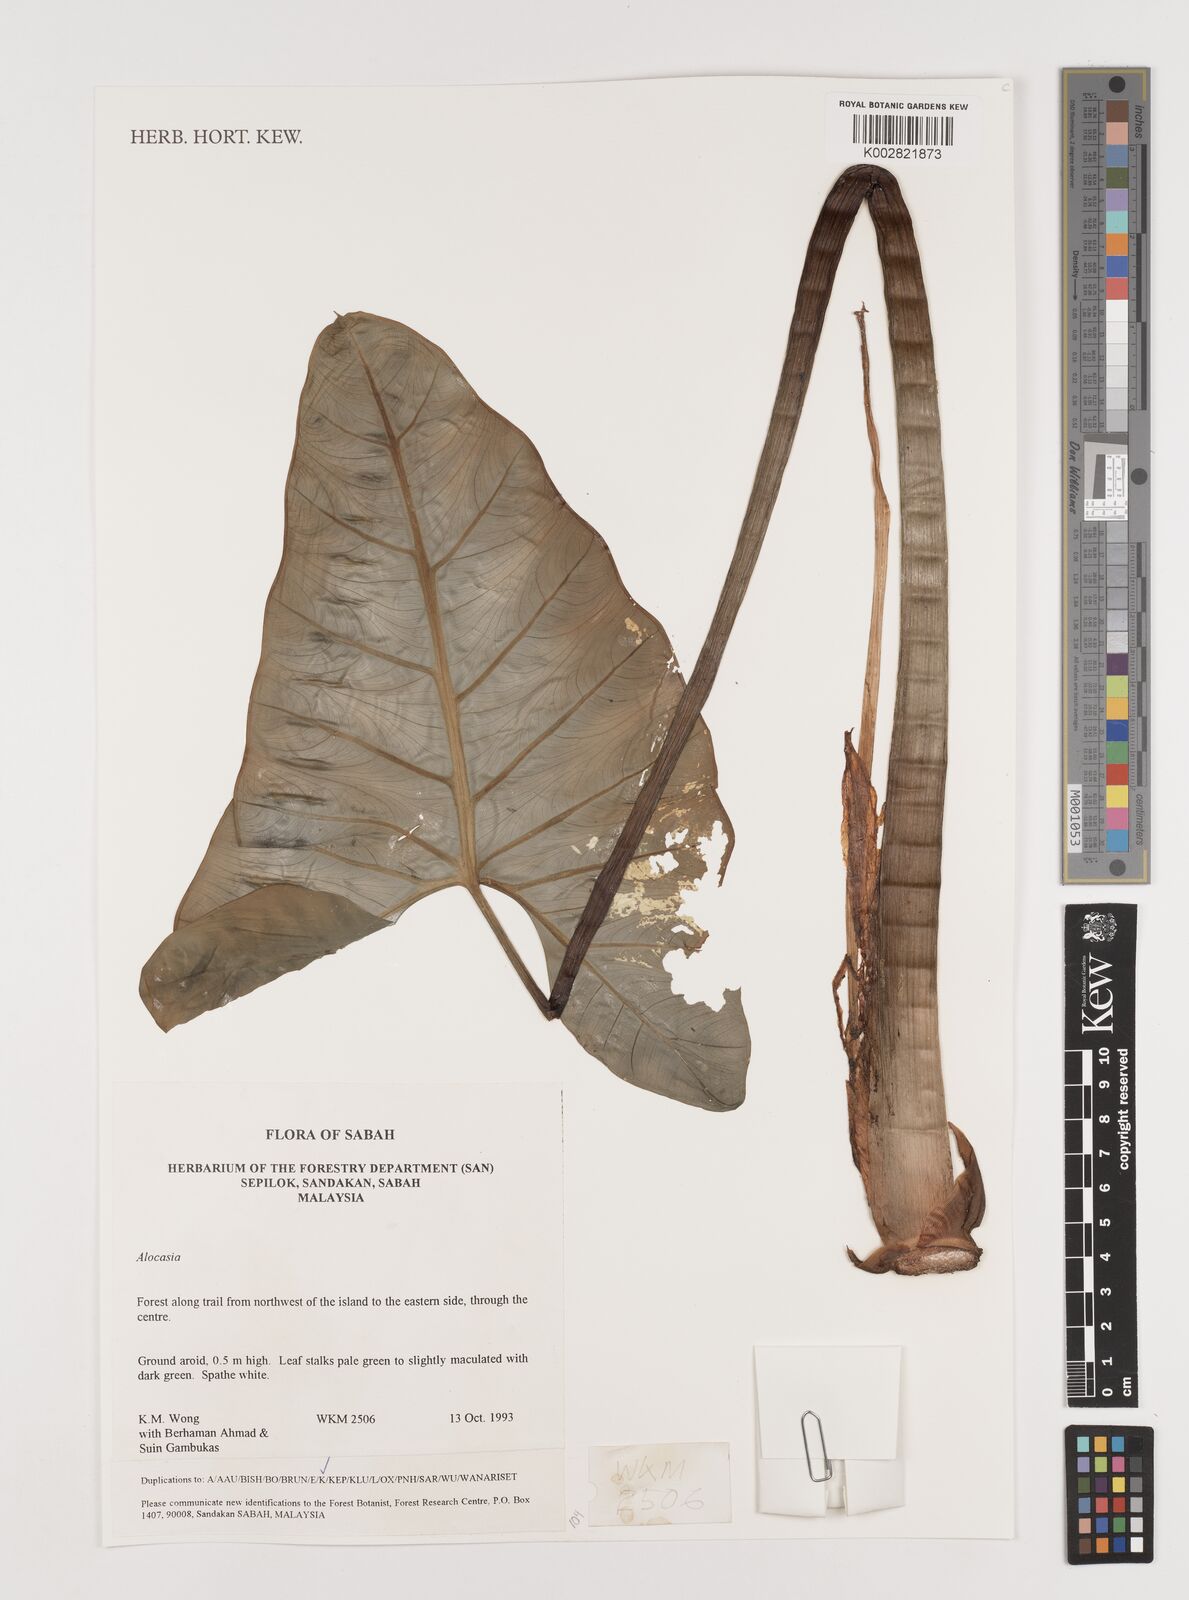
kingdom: Plantae
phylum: Tracheophyta
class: Liliopsida
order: Alismatales
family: Araceae
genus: Alocasia
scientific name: Alocasia
